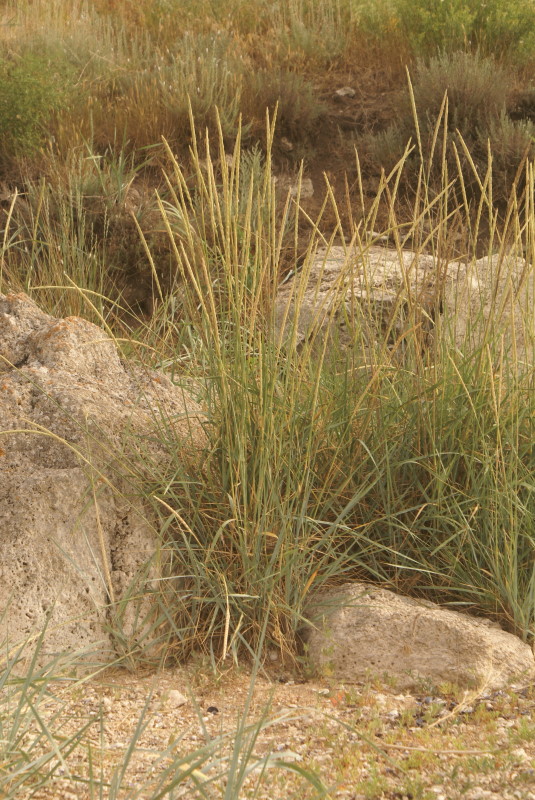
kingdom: Plantae
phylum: Tracheophyta
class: Liliopsida
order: Poales
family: Poaceae
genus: Elymus
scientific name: Elymus
